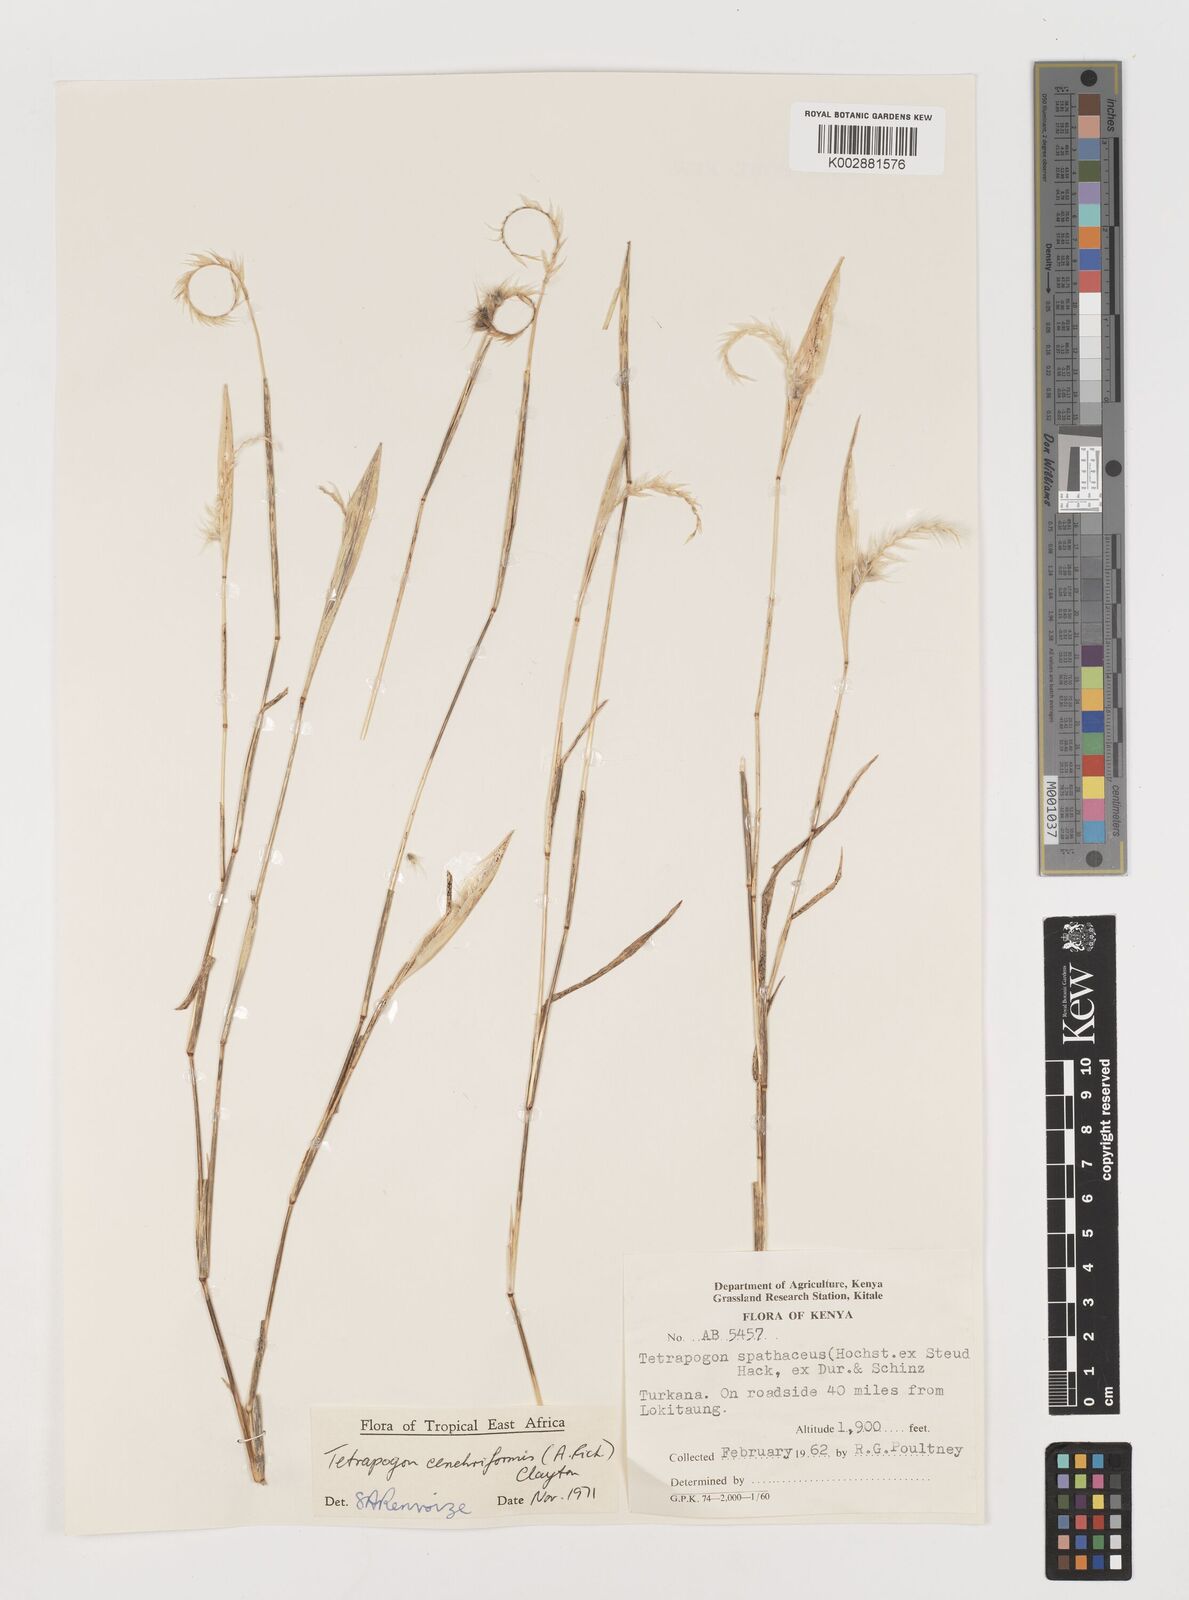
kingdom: Plantae
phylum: Tracheophyta
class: Liliopsida
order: Poales
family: Poaceae
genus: Tetrapogon
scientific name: Tetrapogon cenchriformis
